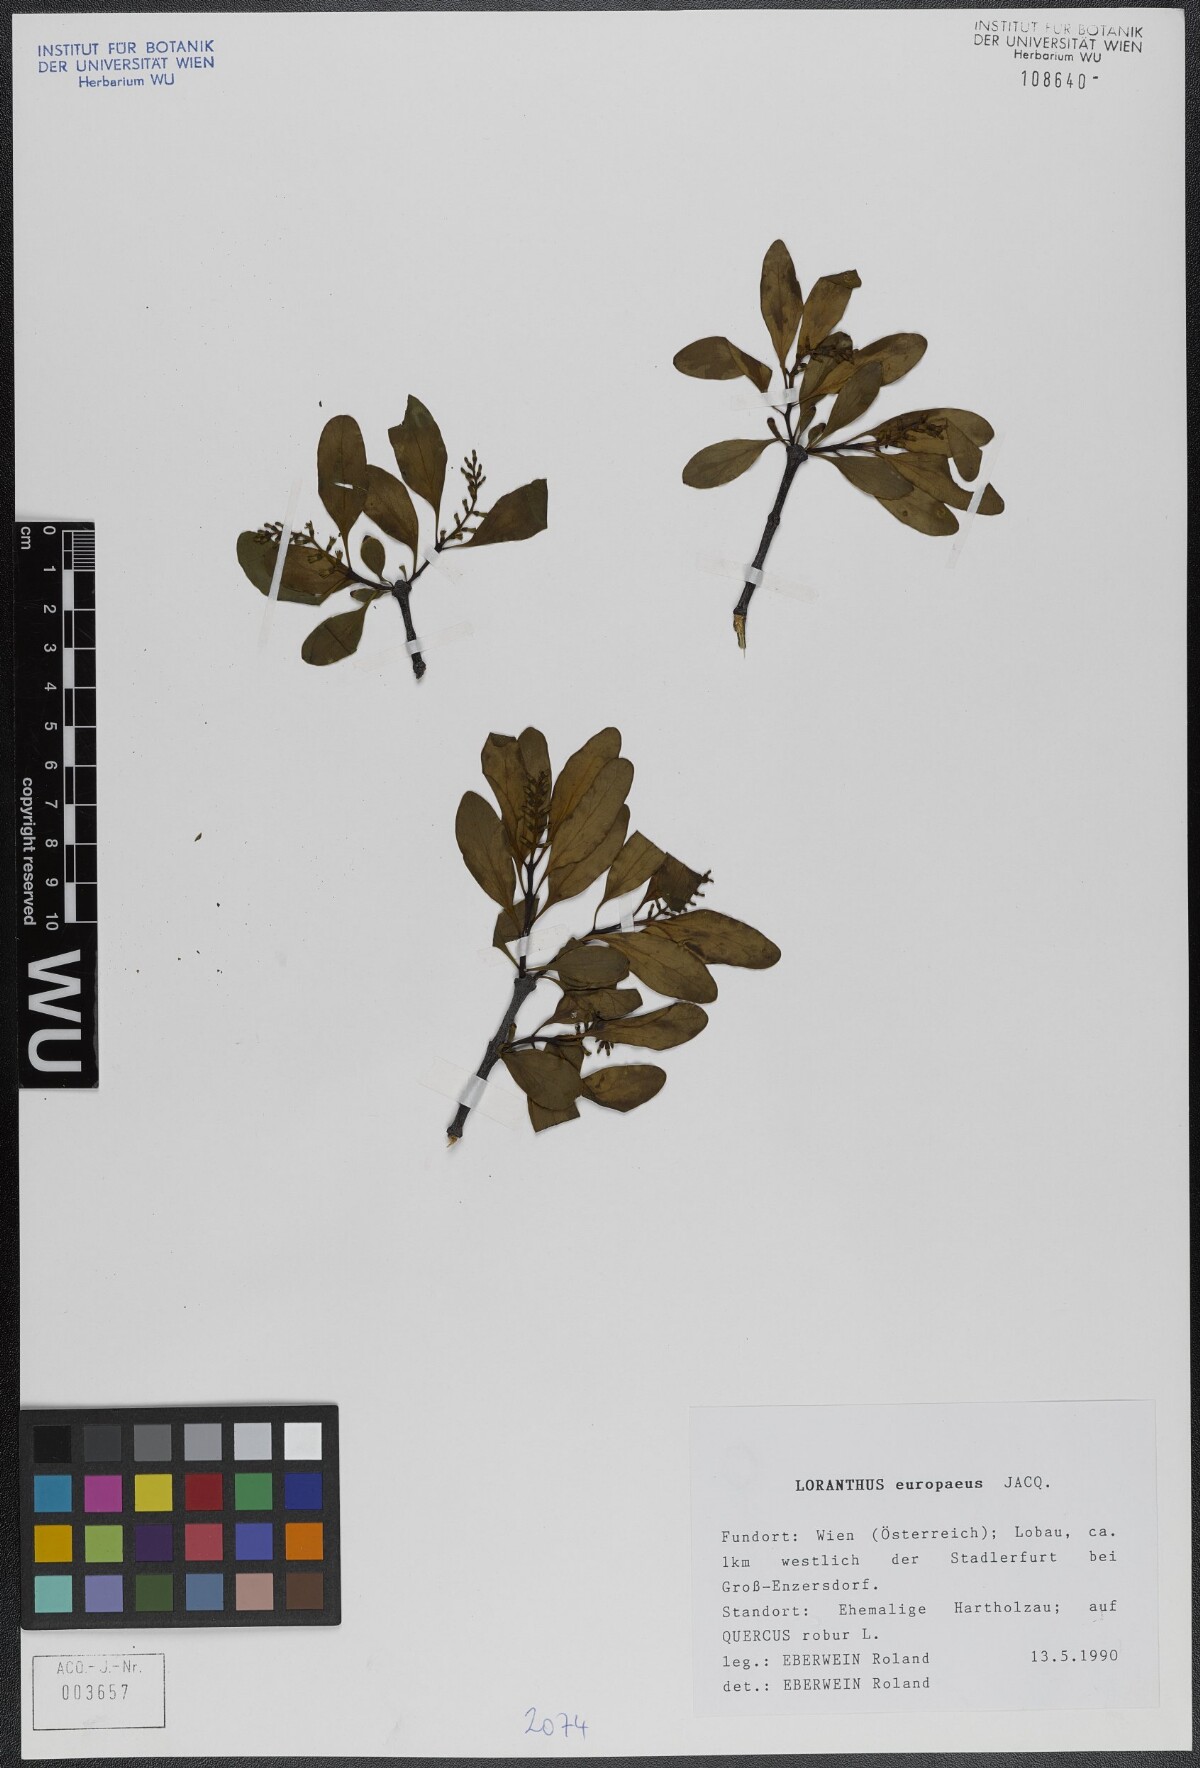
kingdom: Plantae
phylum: Tracheophyta
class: Magnoliopsida
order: Santalales
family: Loranthaceae
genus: Loranthus
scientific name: Loranthus europaeus
